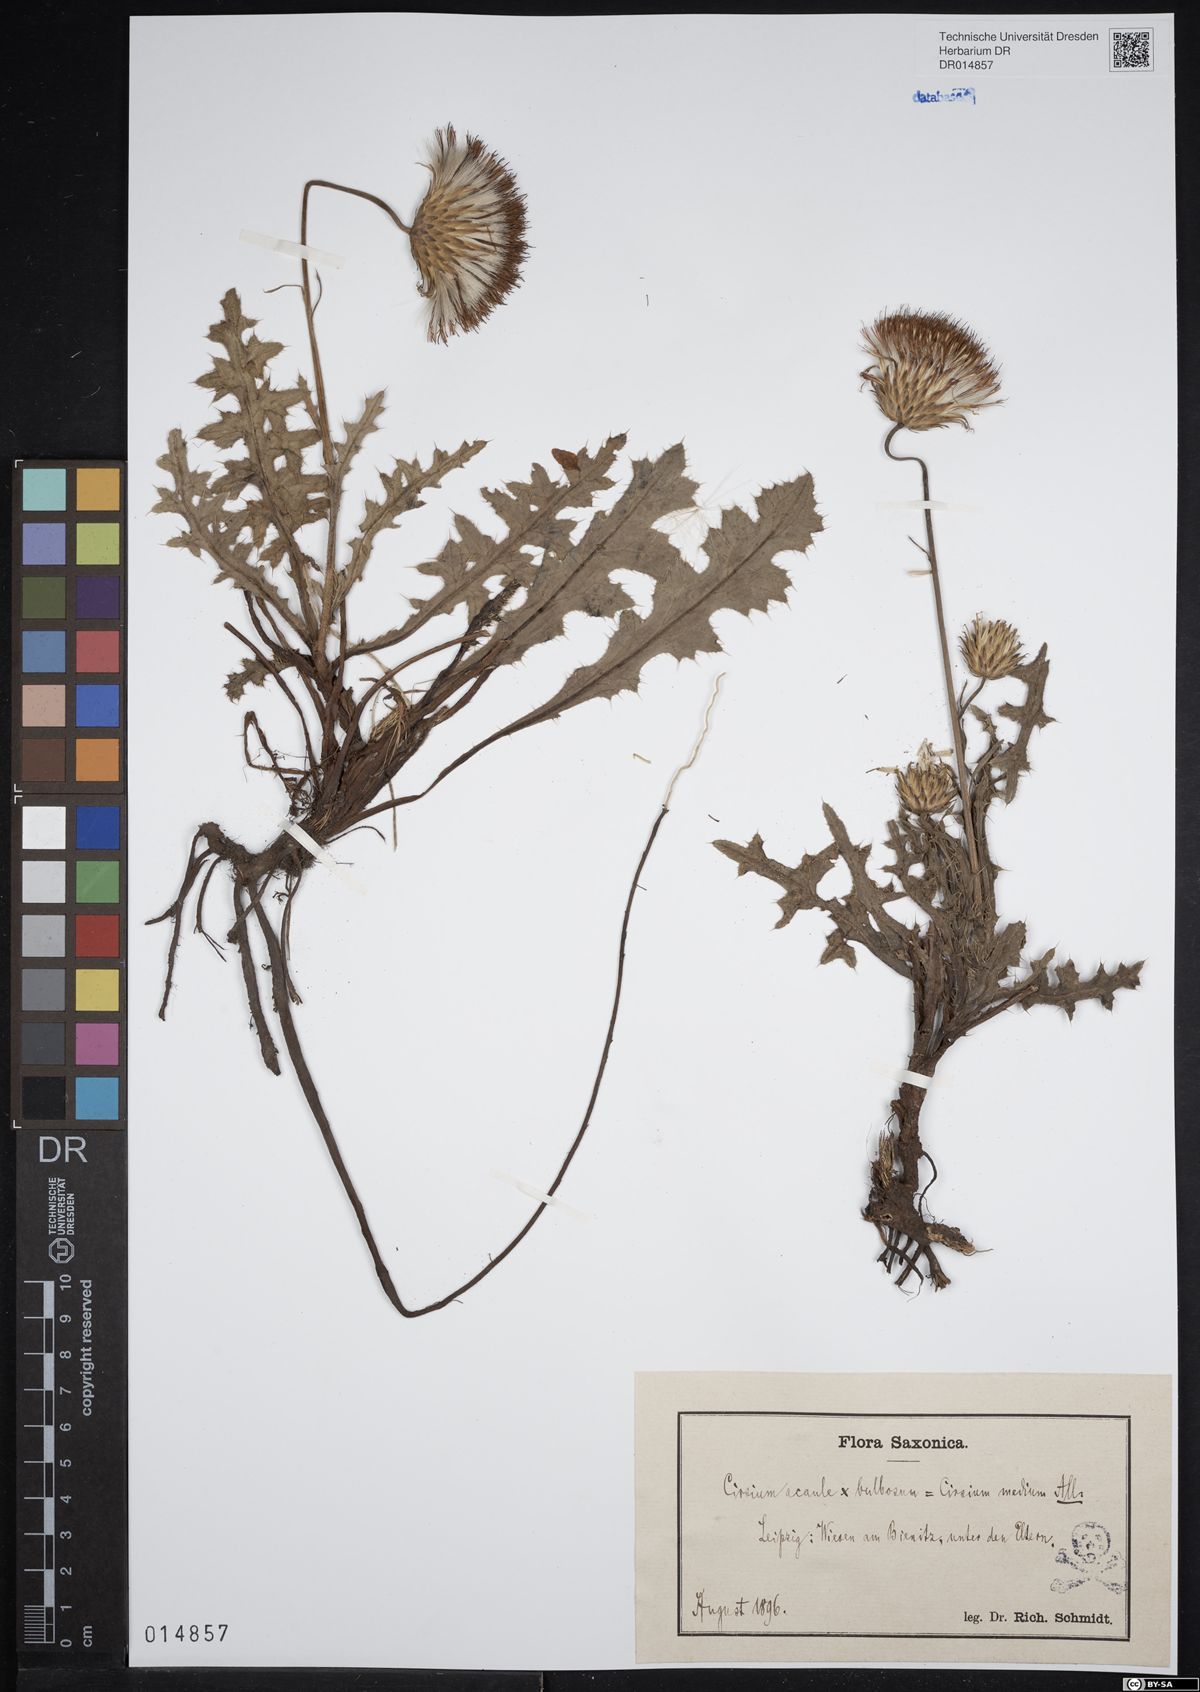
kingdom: Plantae
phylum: Tracheophyta
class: Magnoliopsida
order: Asterales
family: Asteraceae
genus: Cirsium
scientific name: Cirsium medium
